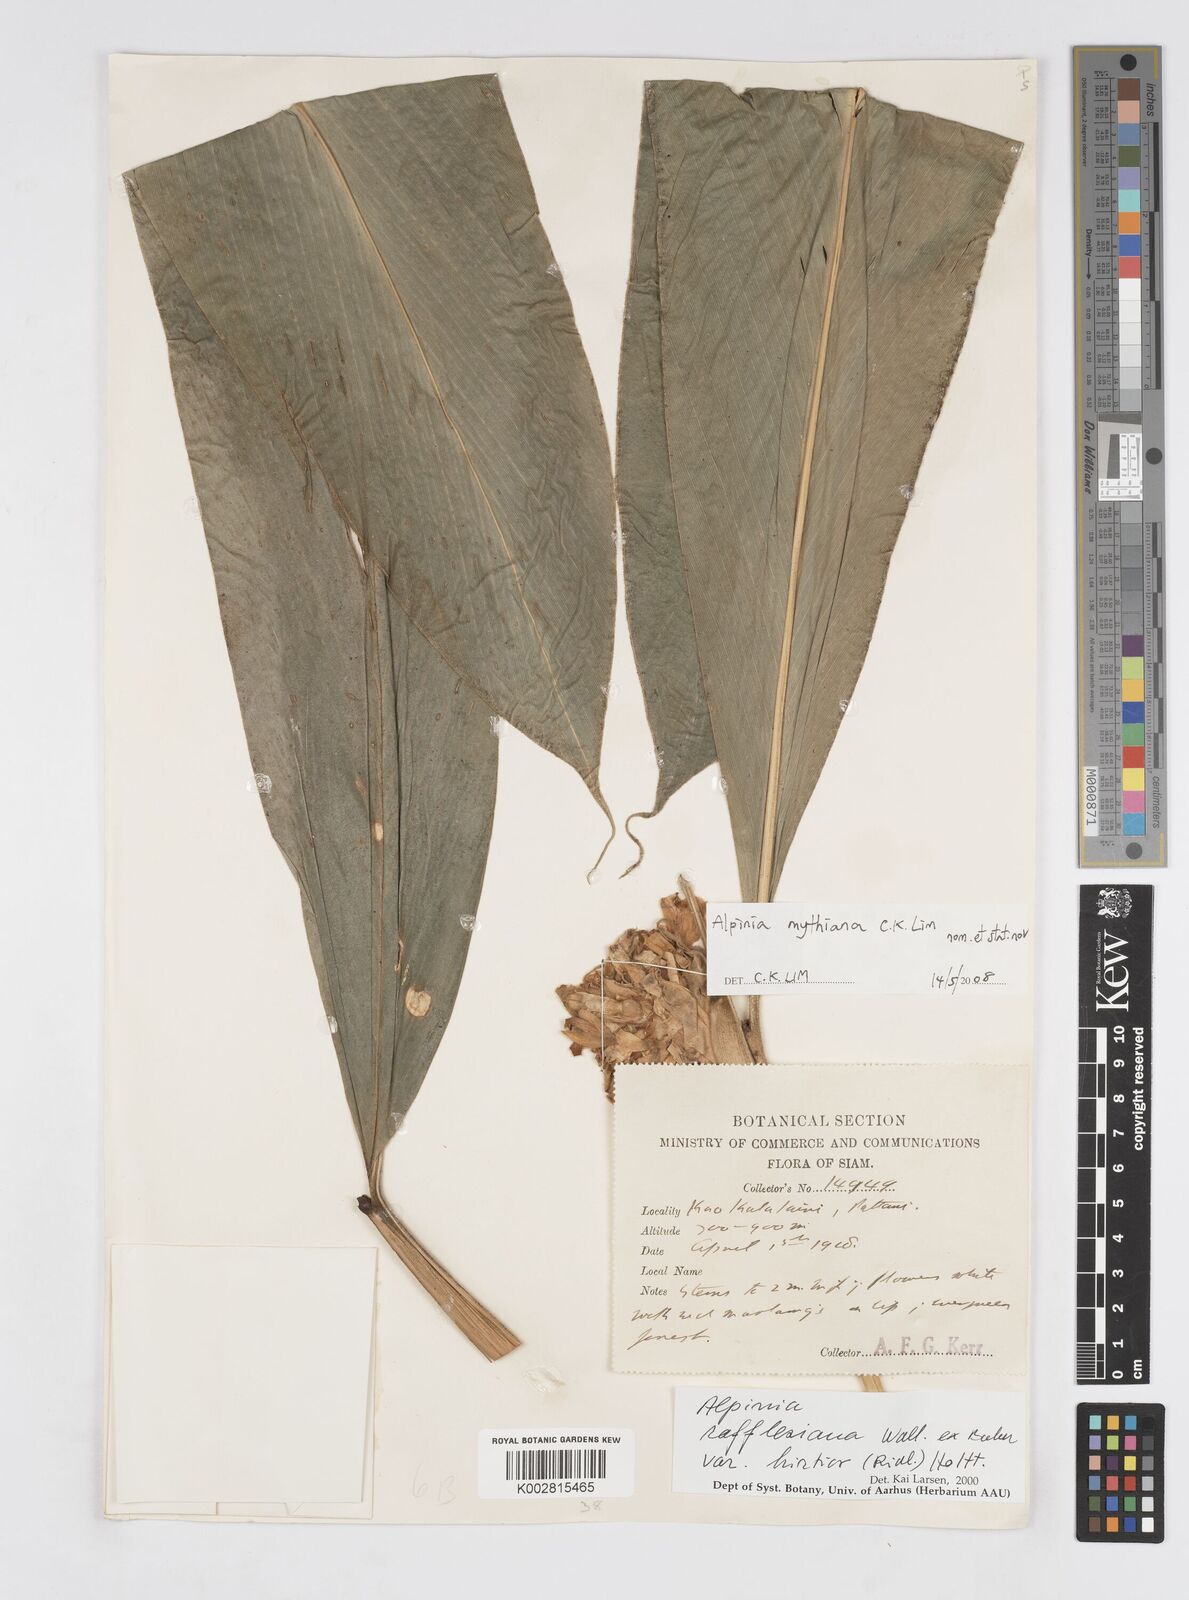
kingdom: Plantae
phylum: Tracheophyta
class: Liliopsida
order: Zingiberales
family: Zingiberaceae
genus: Alpinia
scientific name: Alpinia rafflesiana
